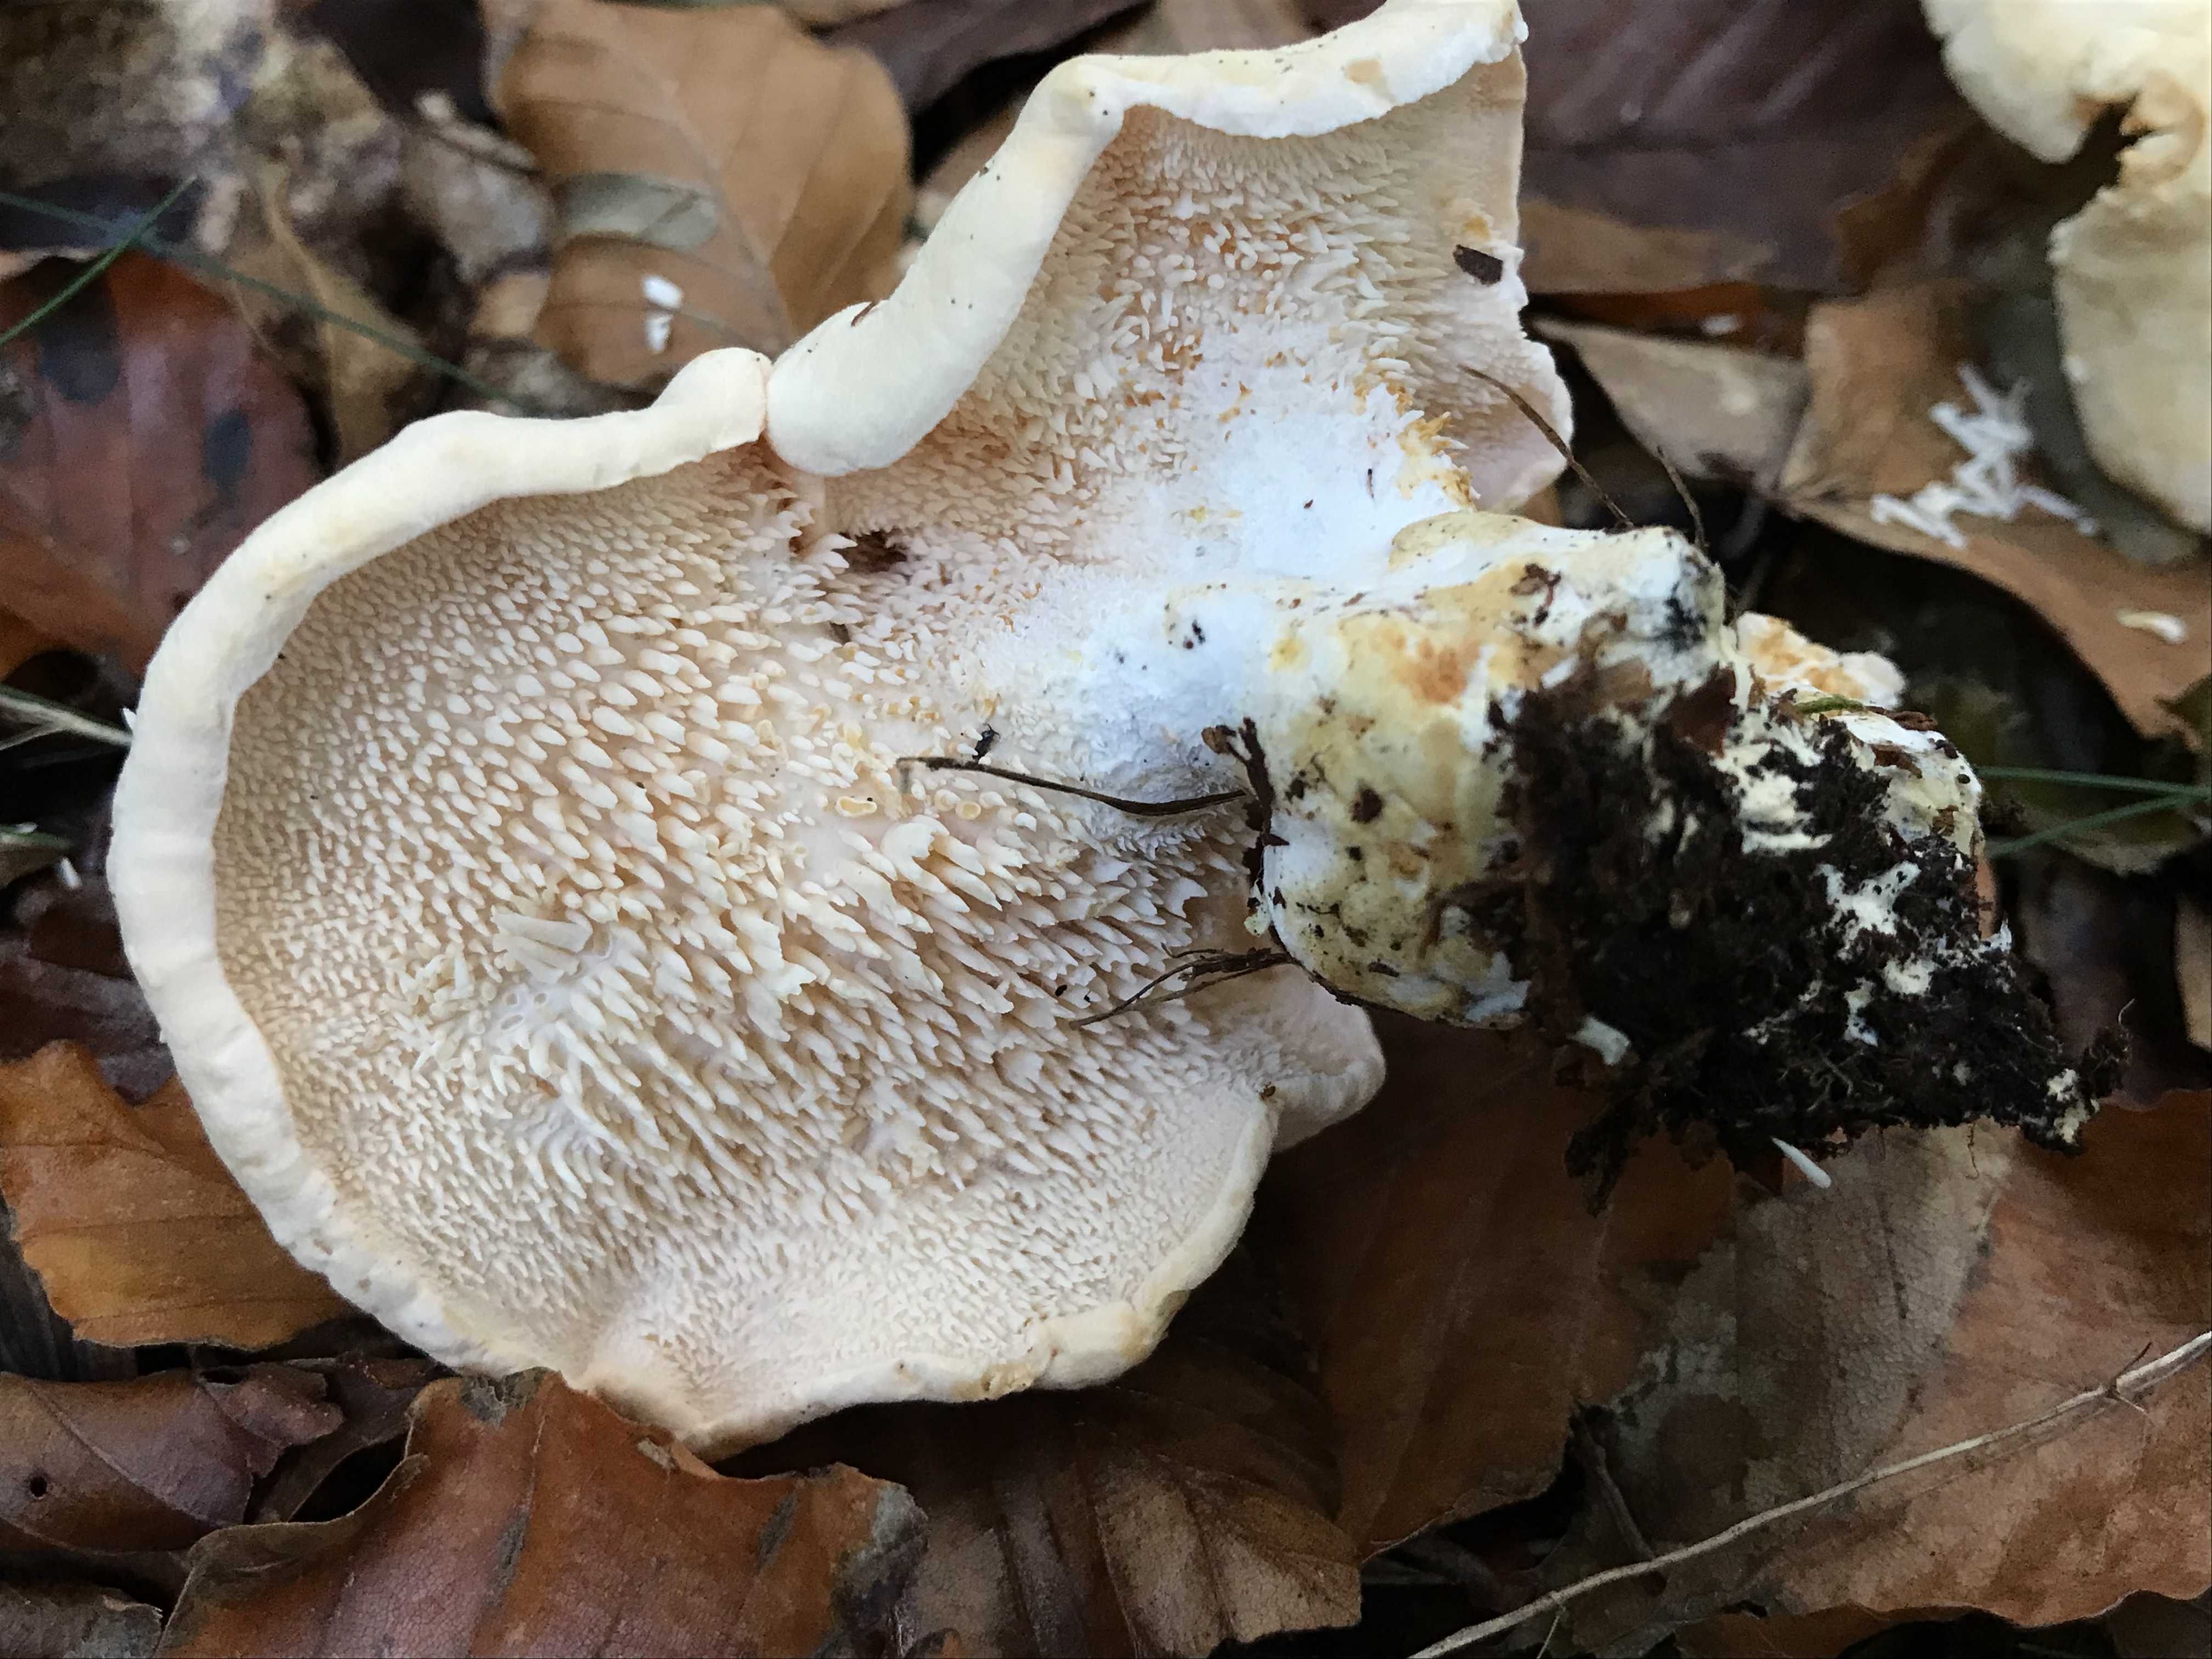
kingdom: Fungi
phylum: Basidiomycota
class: Agaricomycetes
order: Cantharellales
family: Hydnaceae
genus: Hydnum
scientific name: Hydnum
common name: pigsvamp
